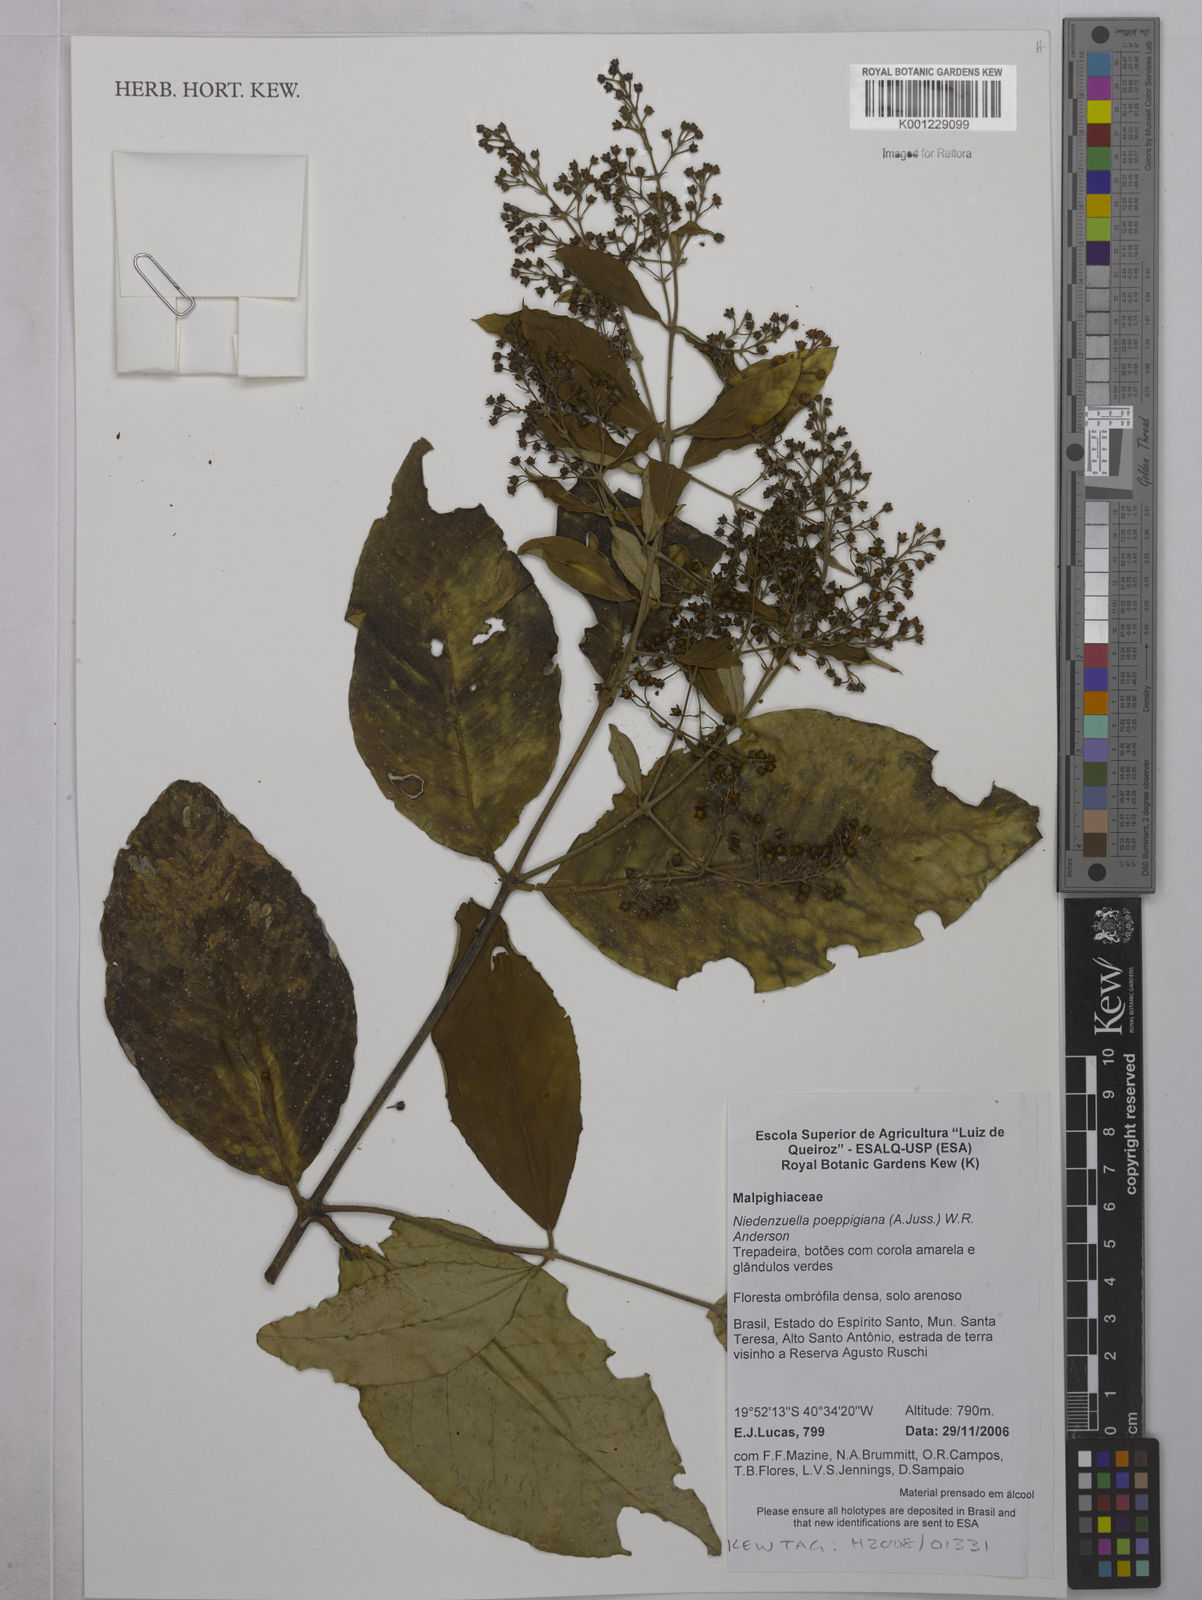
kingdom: Plantae
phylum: Tracheophyta
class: Magnoliopsida
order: Malpighiales
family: Malpighiaceae
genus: Niedenzuella
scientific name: Niedenzuella poeppigiana
